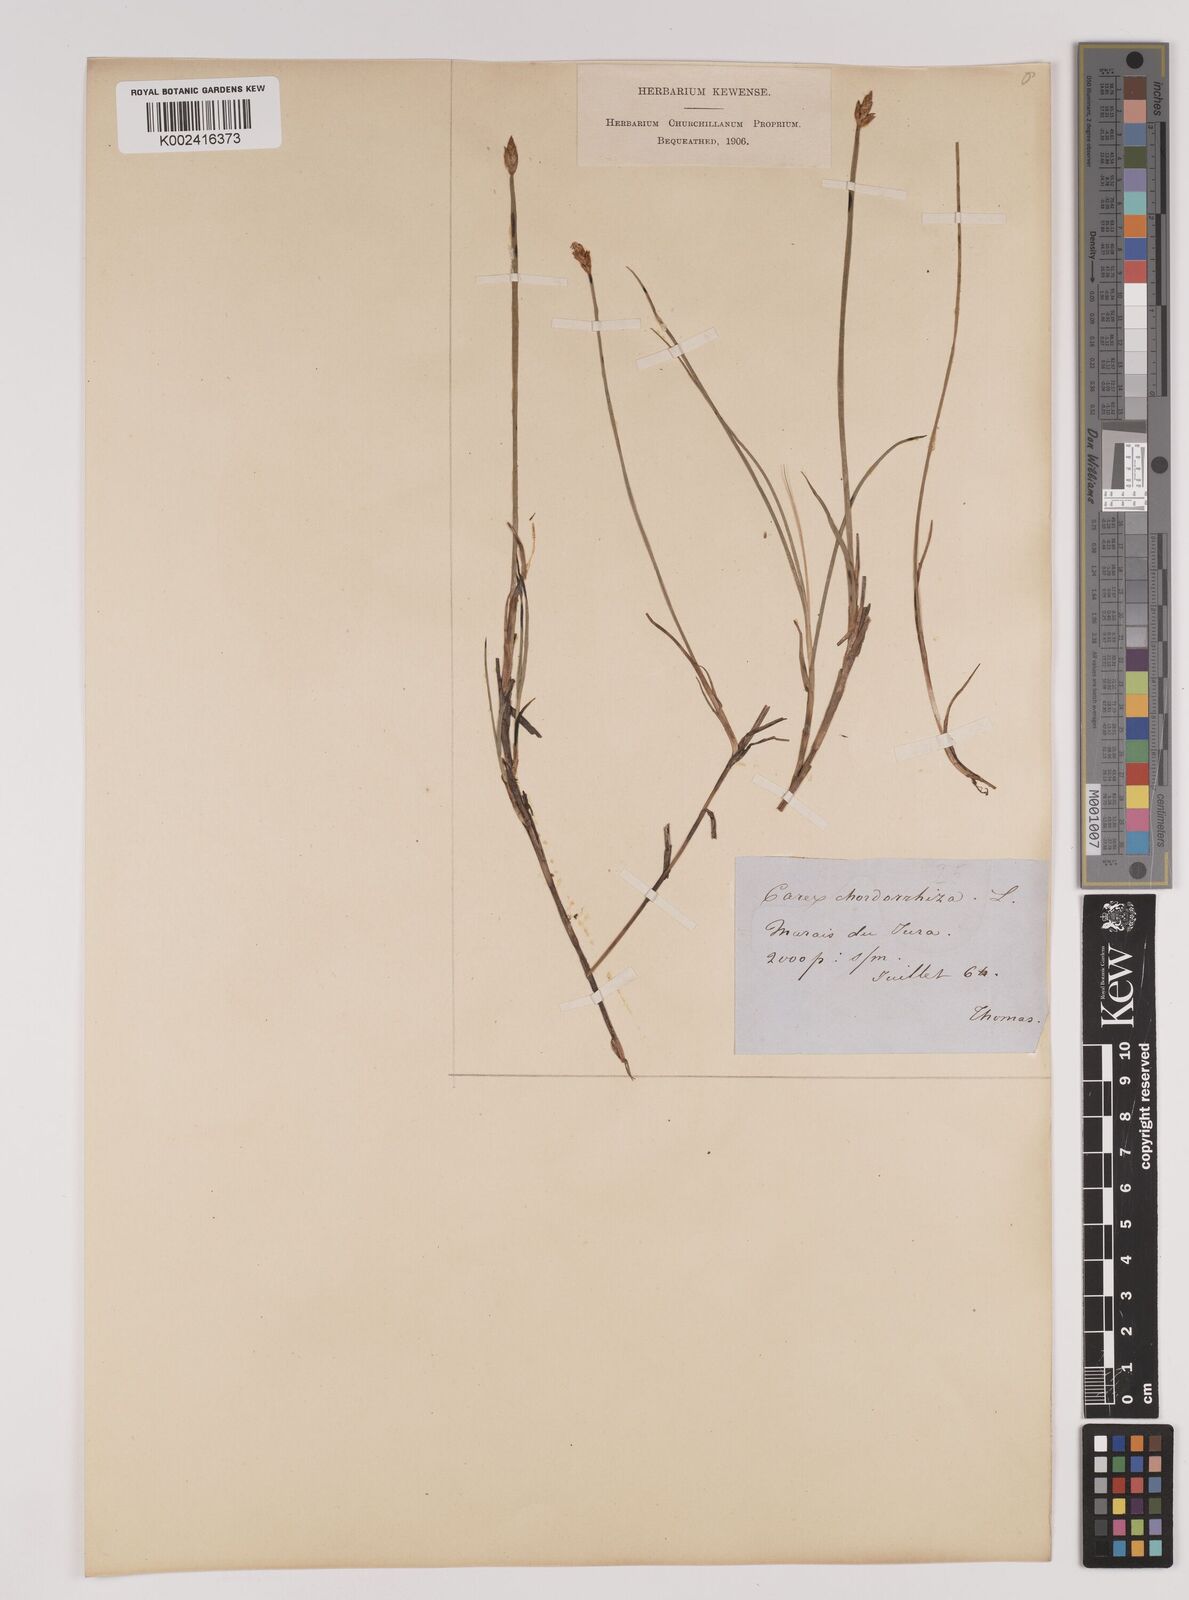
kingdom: Plantae
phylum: Tracheophyta
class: Liliopsida
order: Poales
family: Cyperaceae
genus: Carex
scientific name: Carex chordorrhiza
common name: String sedge
